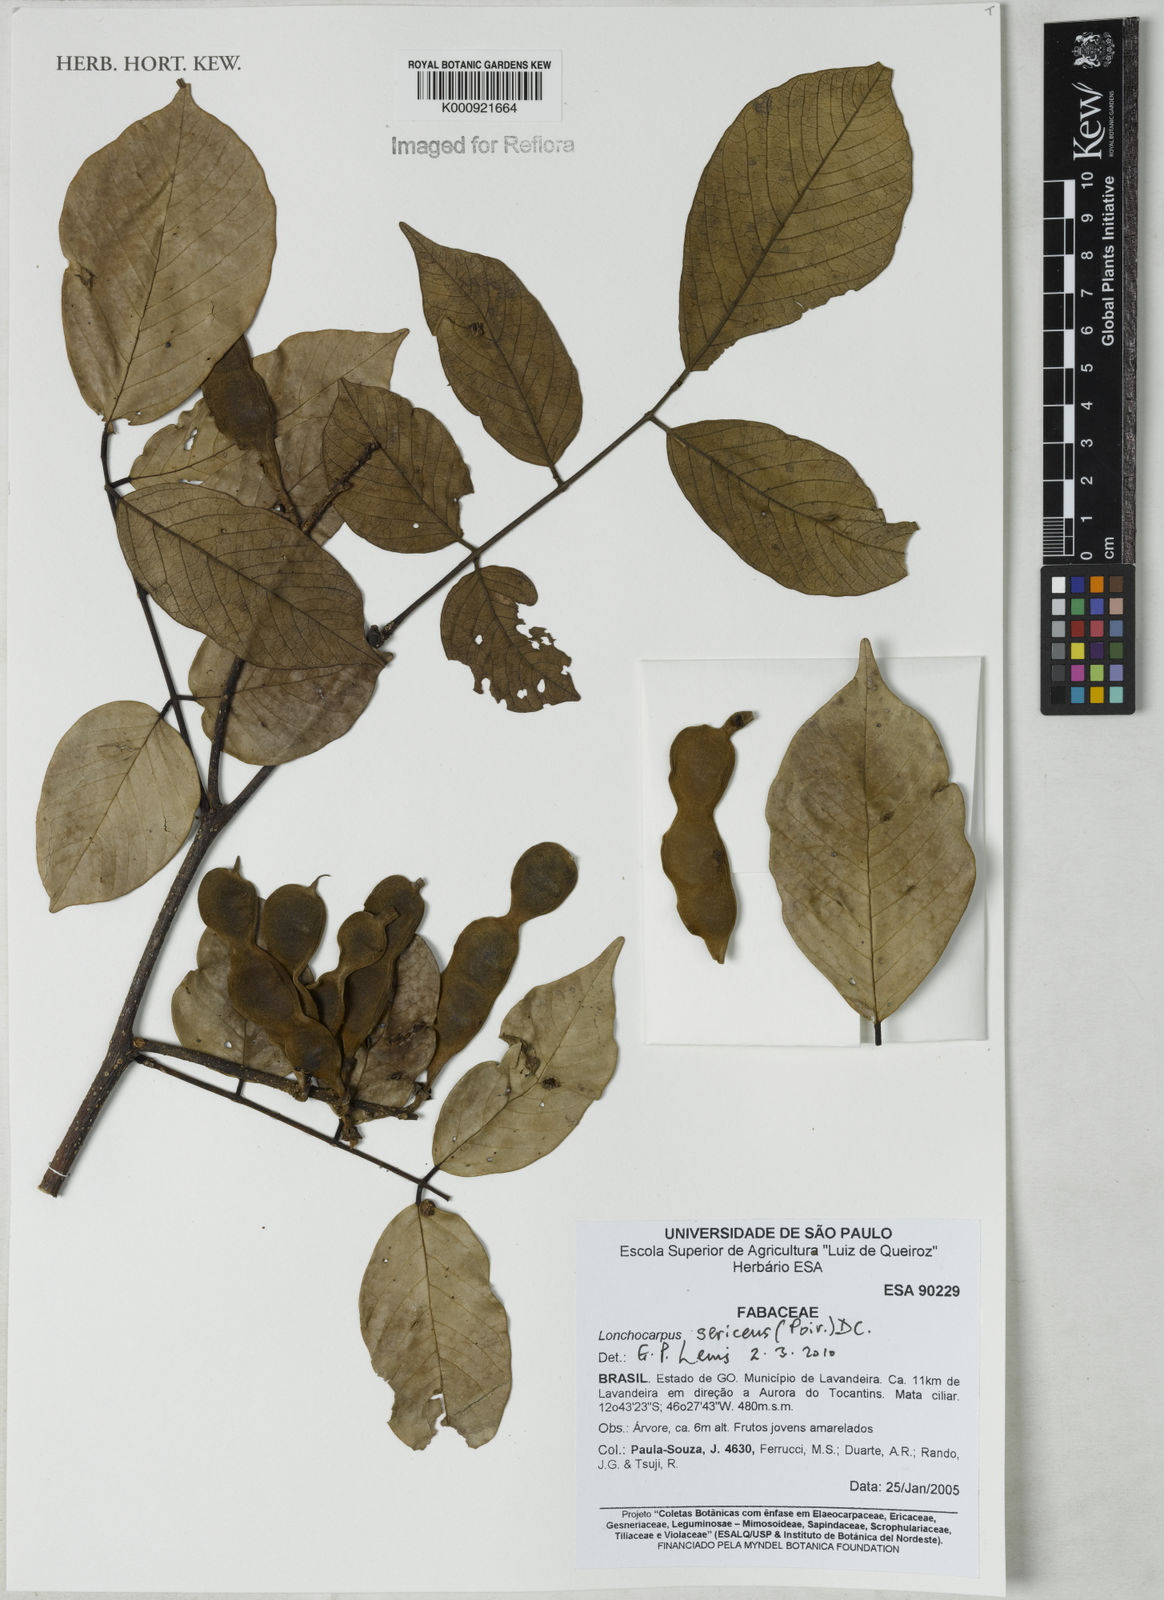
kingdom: Plantae
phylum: Tracheophyta
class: Magnoliopsida
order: Fabales
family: Fabaceae
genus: Lonchocarpus
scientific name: Lonchocarpus
